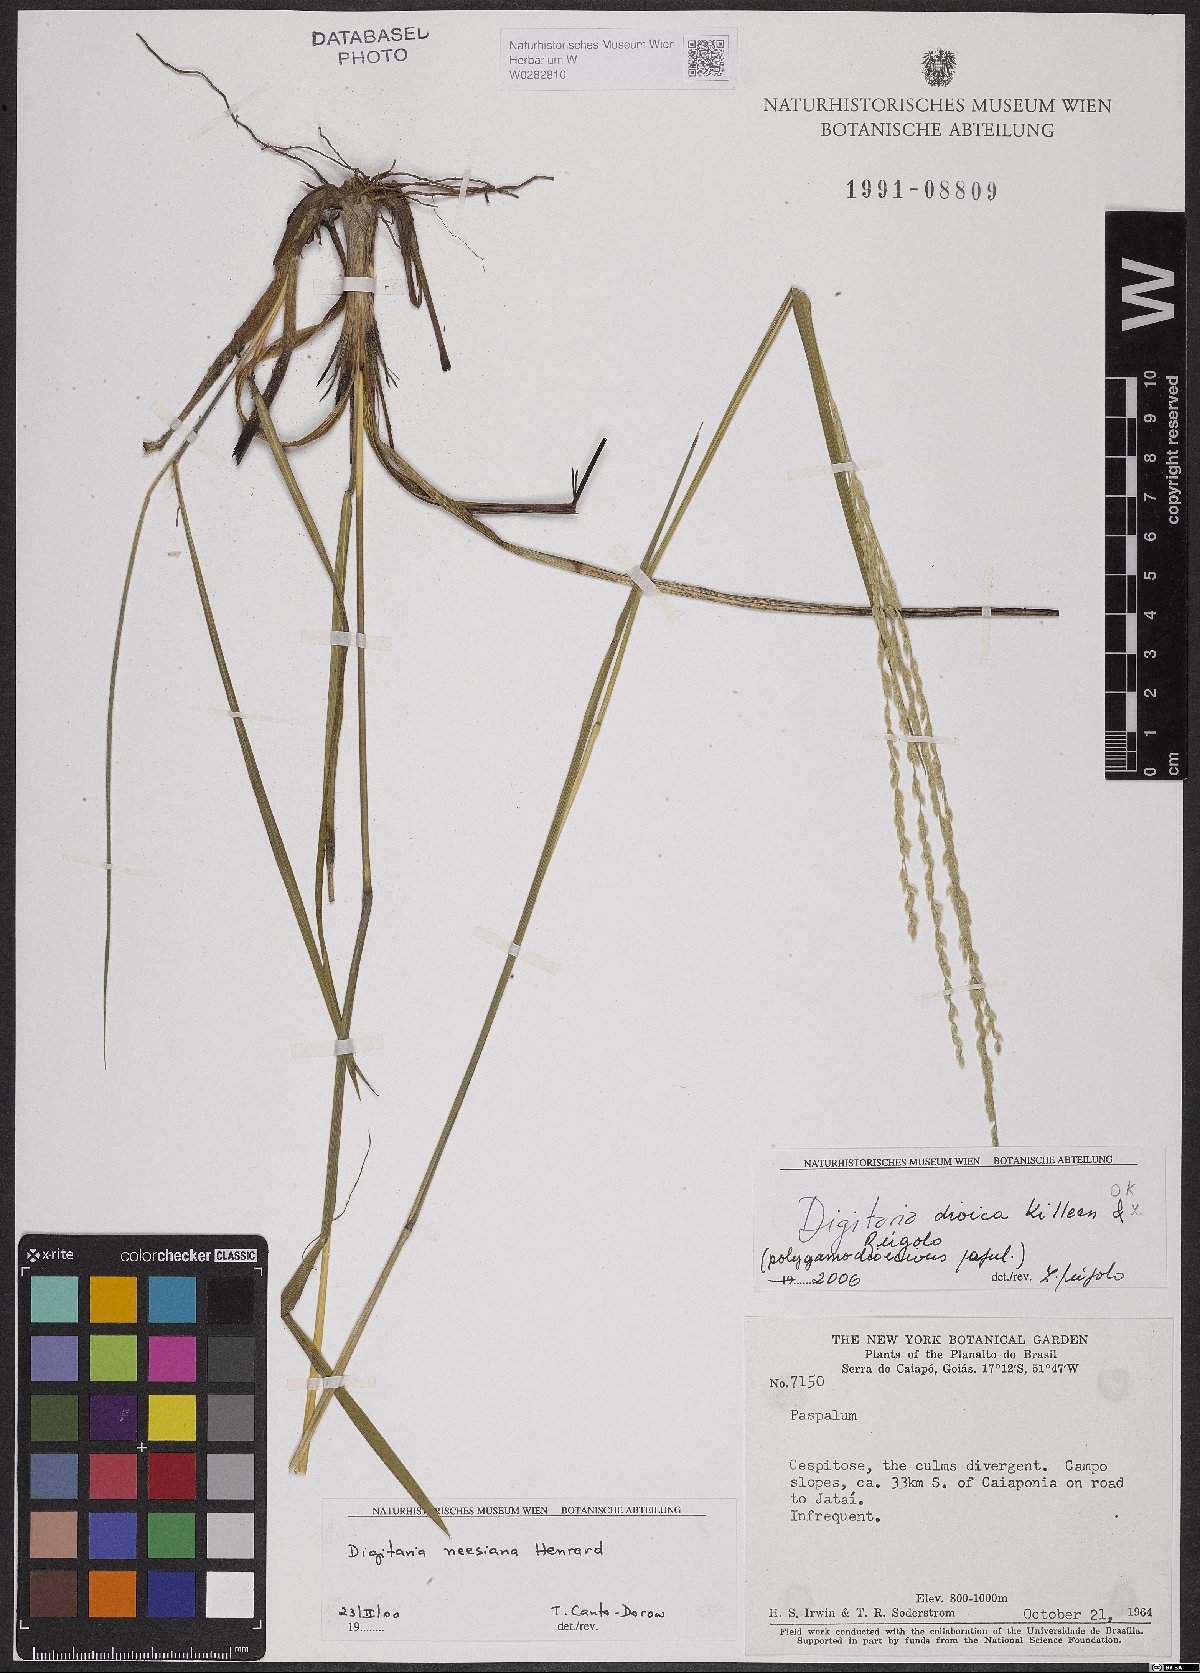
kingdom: Plantae
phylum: Tracheophyta
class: Liliopsida
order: Poales
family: Poaceae
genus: Digitaria
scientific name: Digitaria dioica
